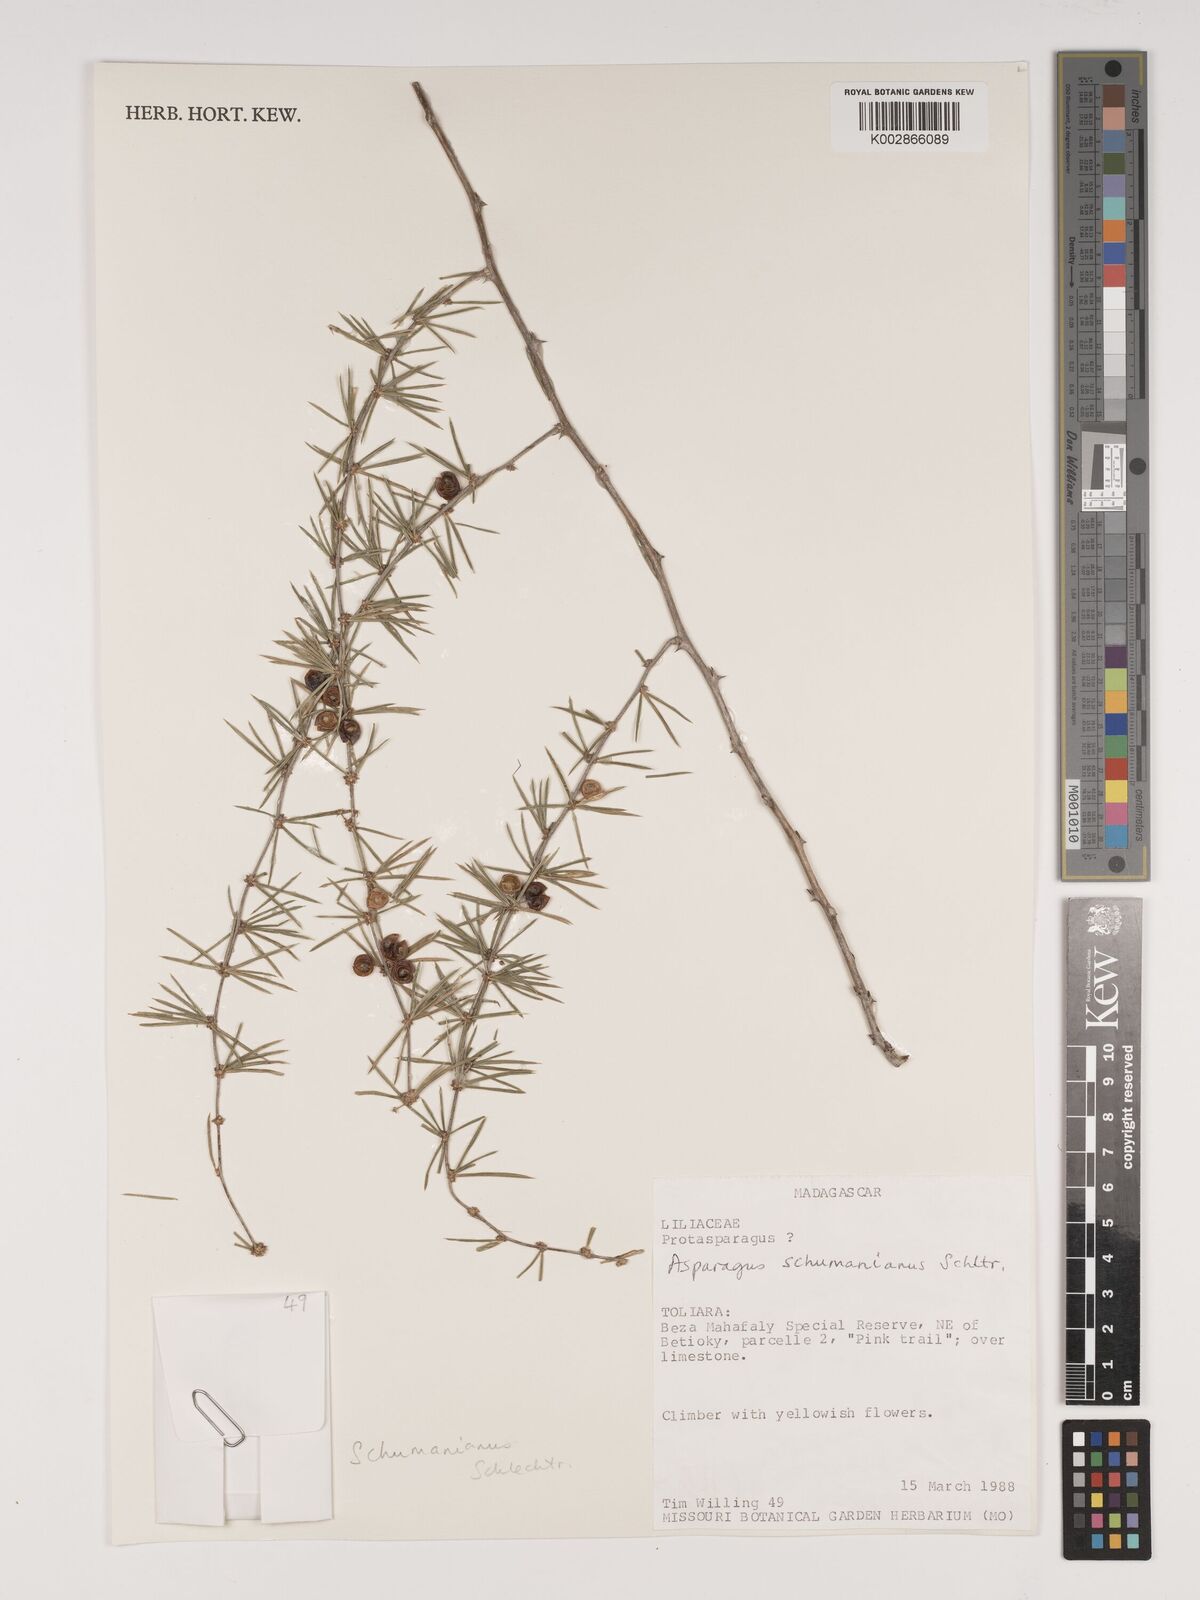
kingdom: Plantae
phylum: Tracheophyta
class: Liliopsida
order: Asparagales
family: Asparagaceae
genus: Asparagus
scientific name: Asparagus schumanianus
